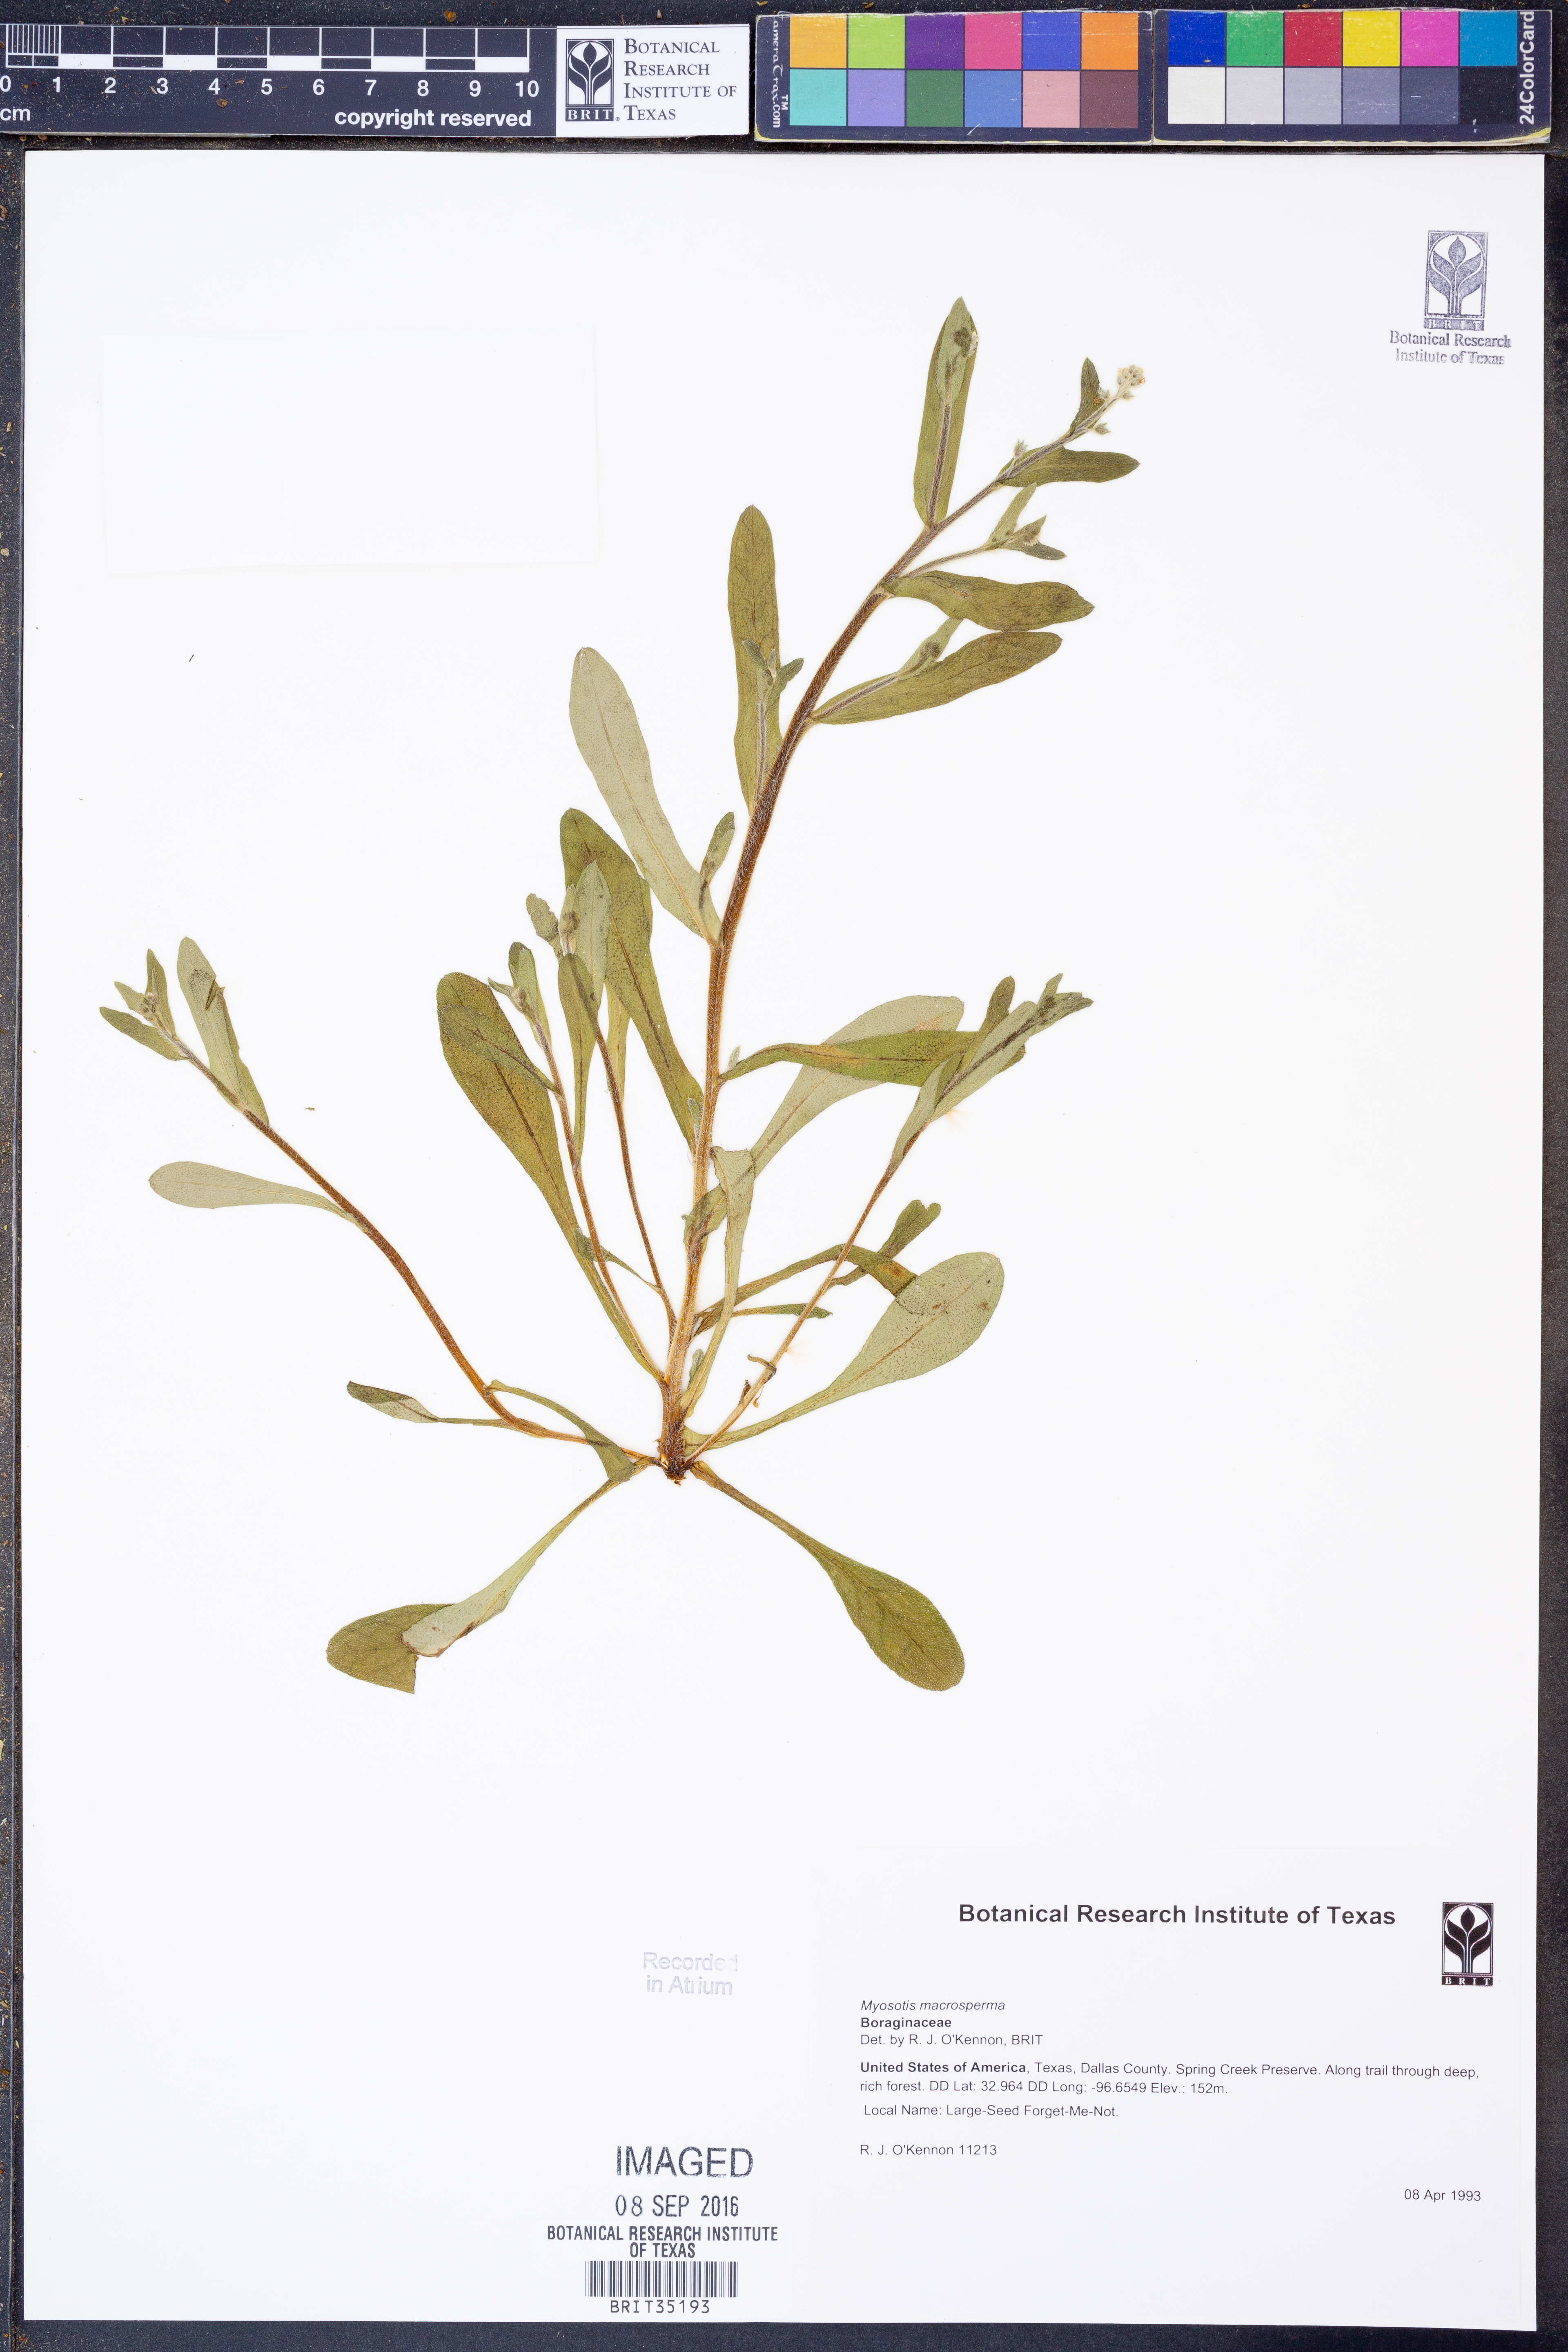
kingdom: Plantae
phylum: Tracheophyta
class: Magnoliopsida
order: Boraginales
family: Boraginaceae
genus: Myosotis
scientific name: Myosotis macrosperma
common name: Large-seed forget-me-not
